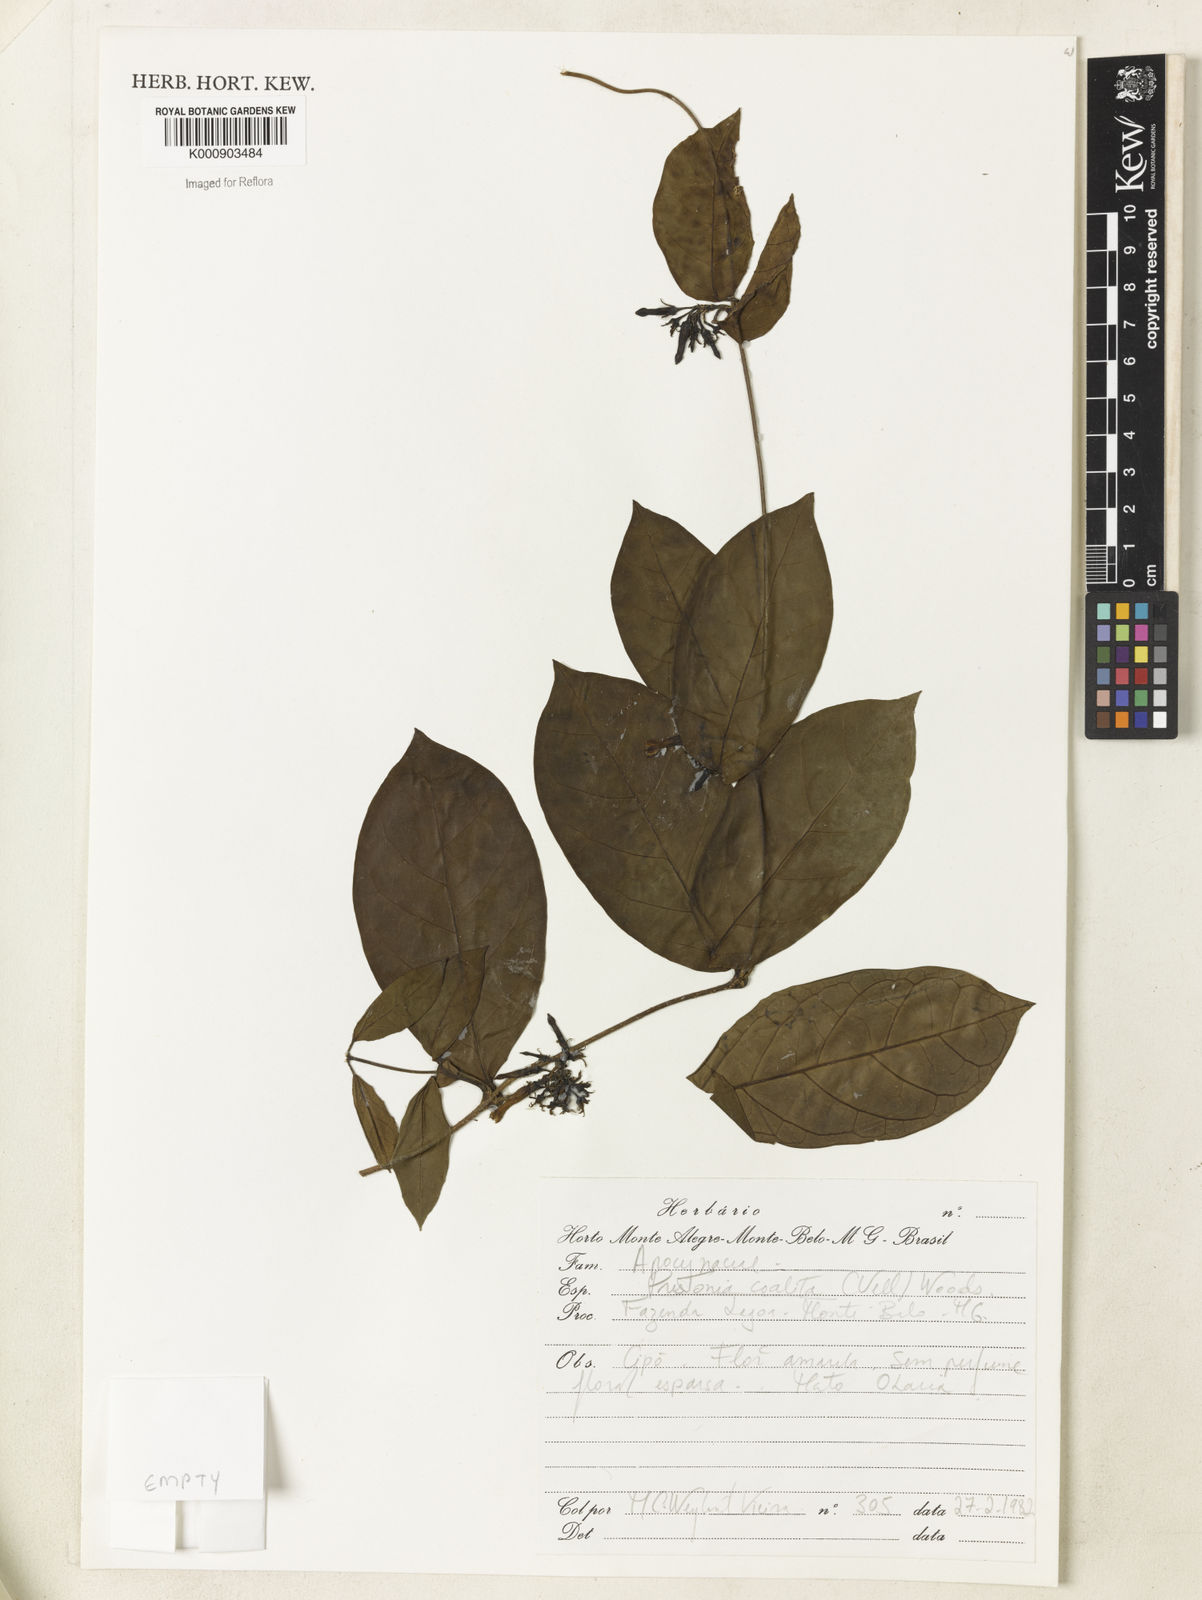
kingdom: Plantae
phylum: Tracheophyta
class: Magnoliopsida
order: Gentianales
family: Apocynaceae
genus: Prestonia
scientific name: Prestonia coalita
